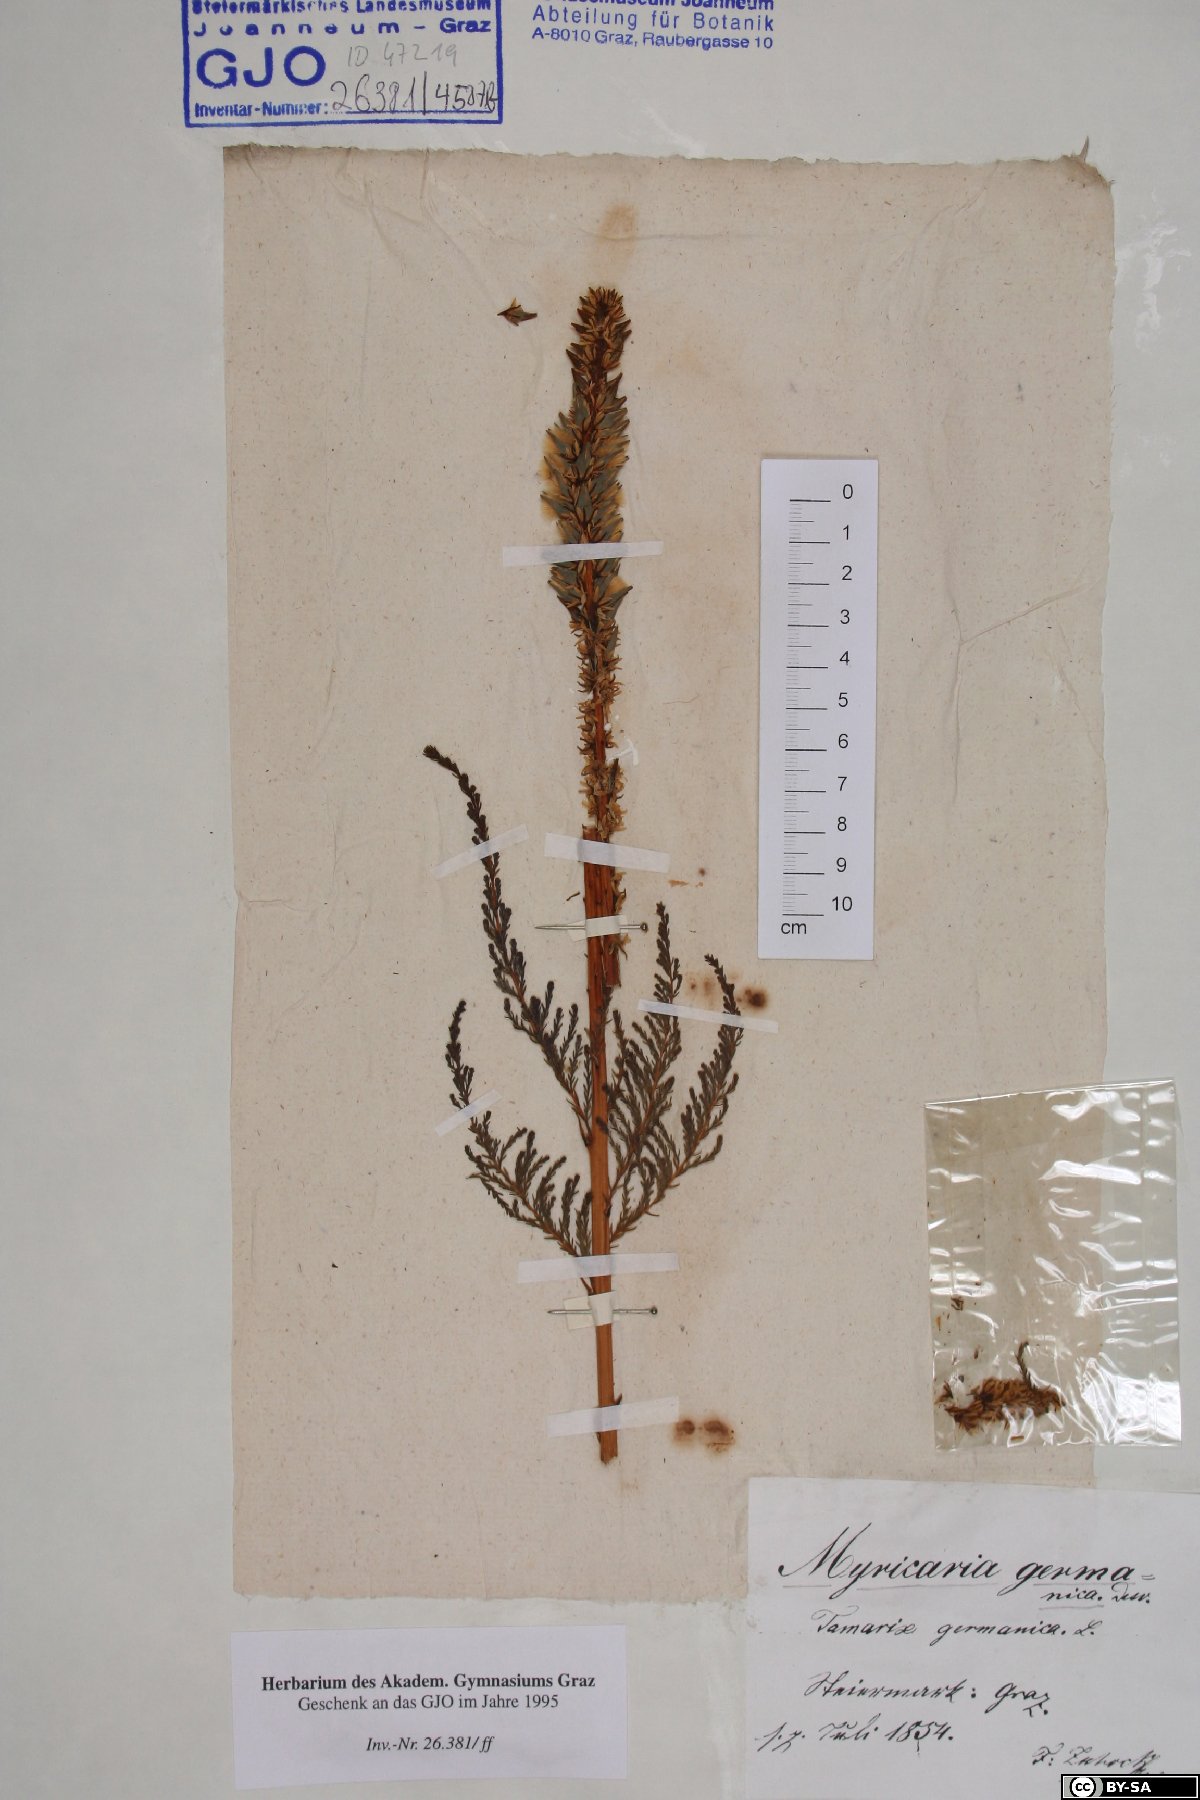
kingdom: Plantae
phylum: Tracheophyta
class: Magnoliopsida
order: Caryophyllales
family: Tamaricaceae
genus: Myricaria
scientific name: Myricaria germanica
